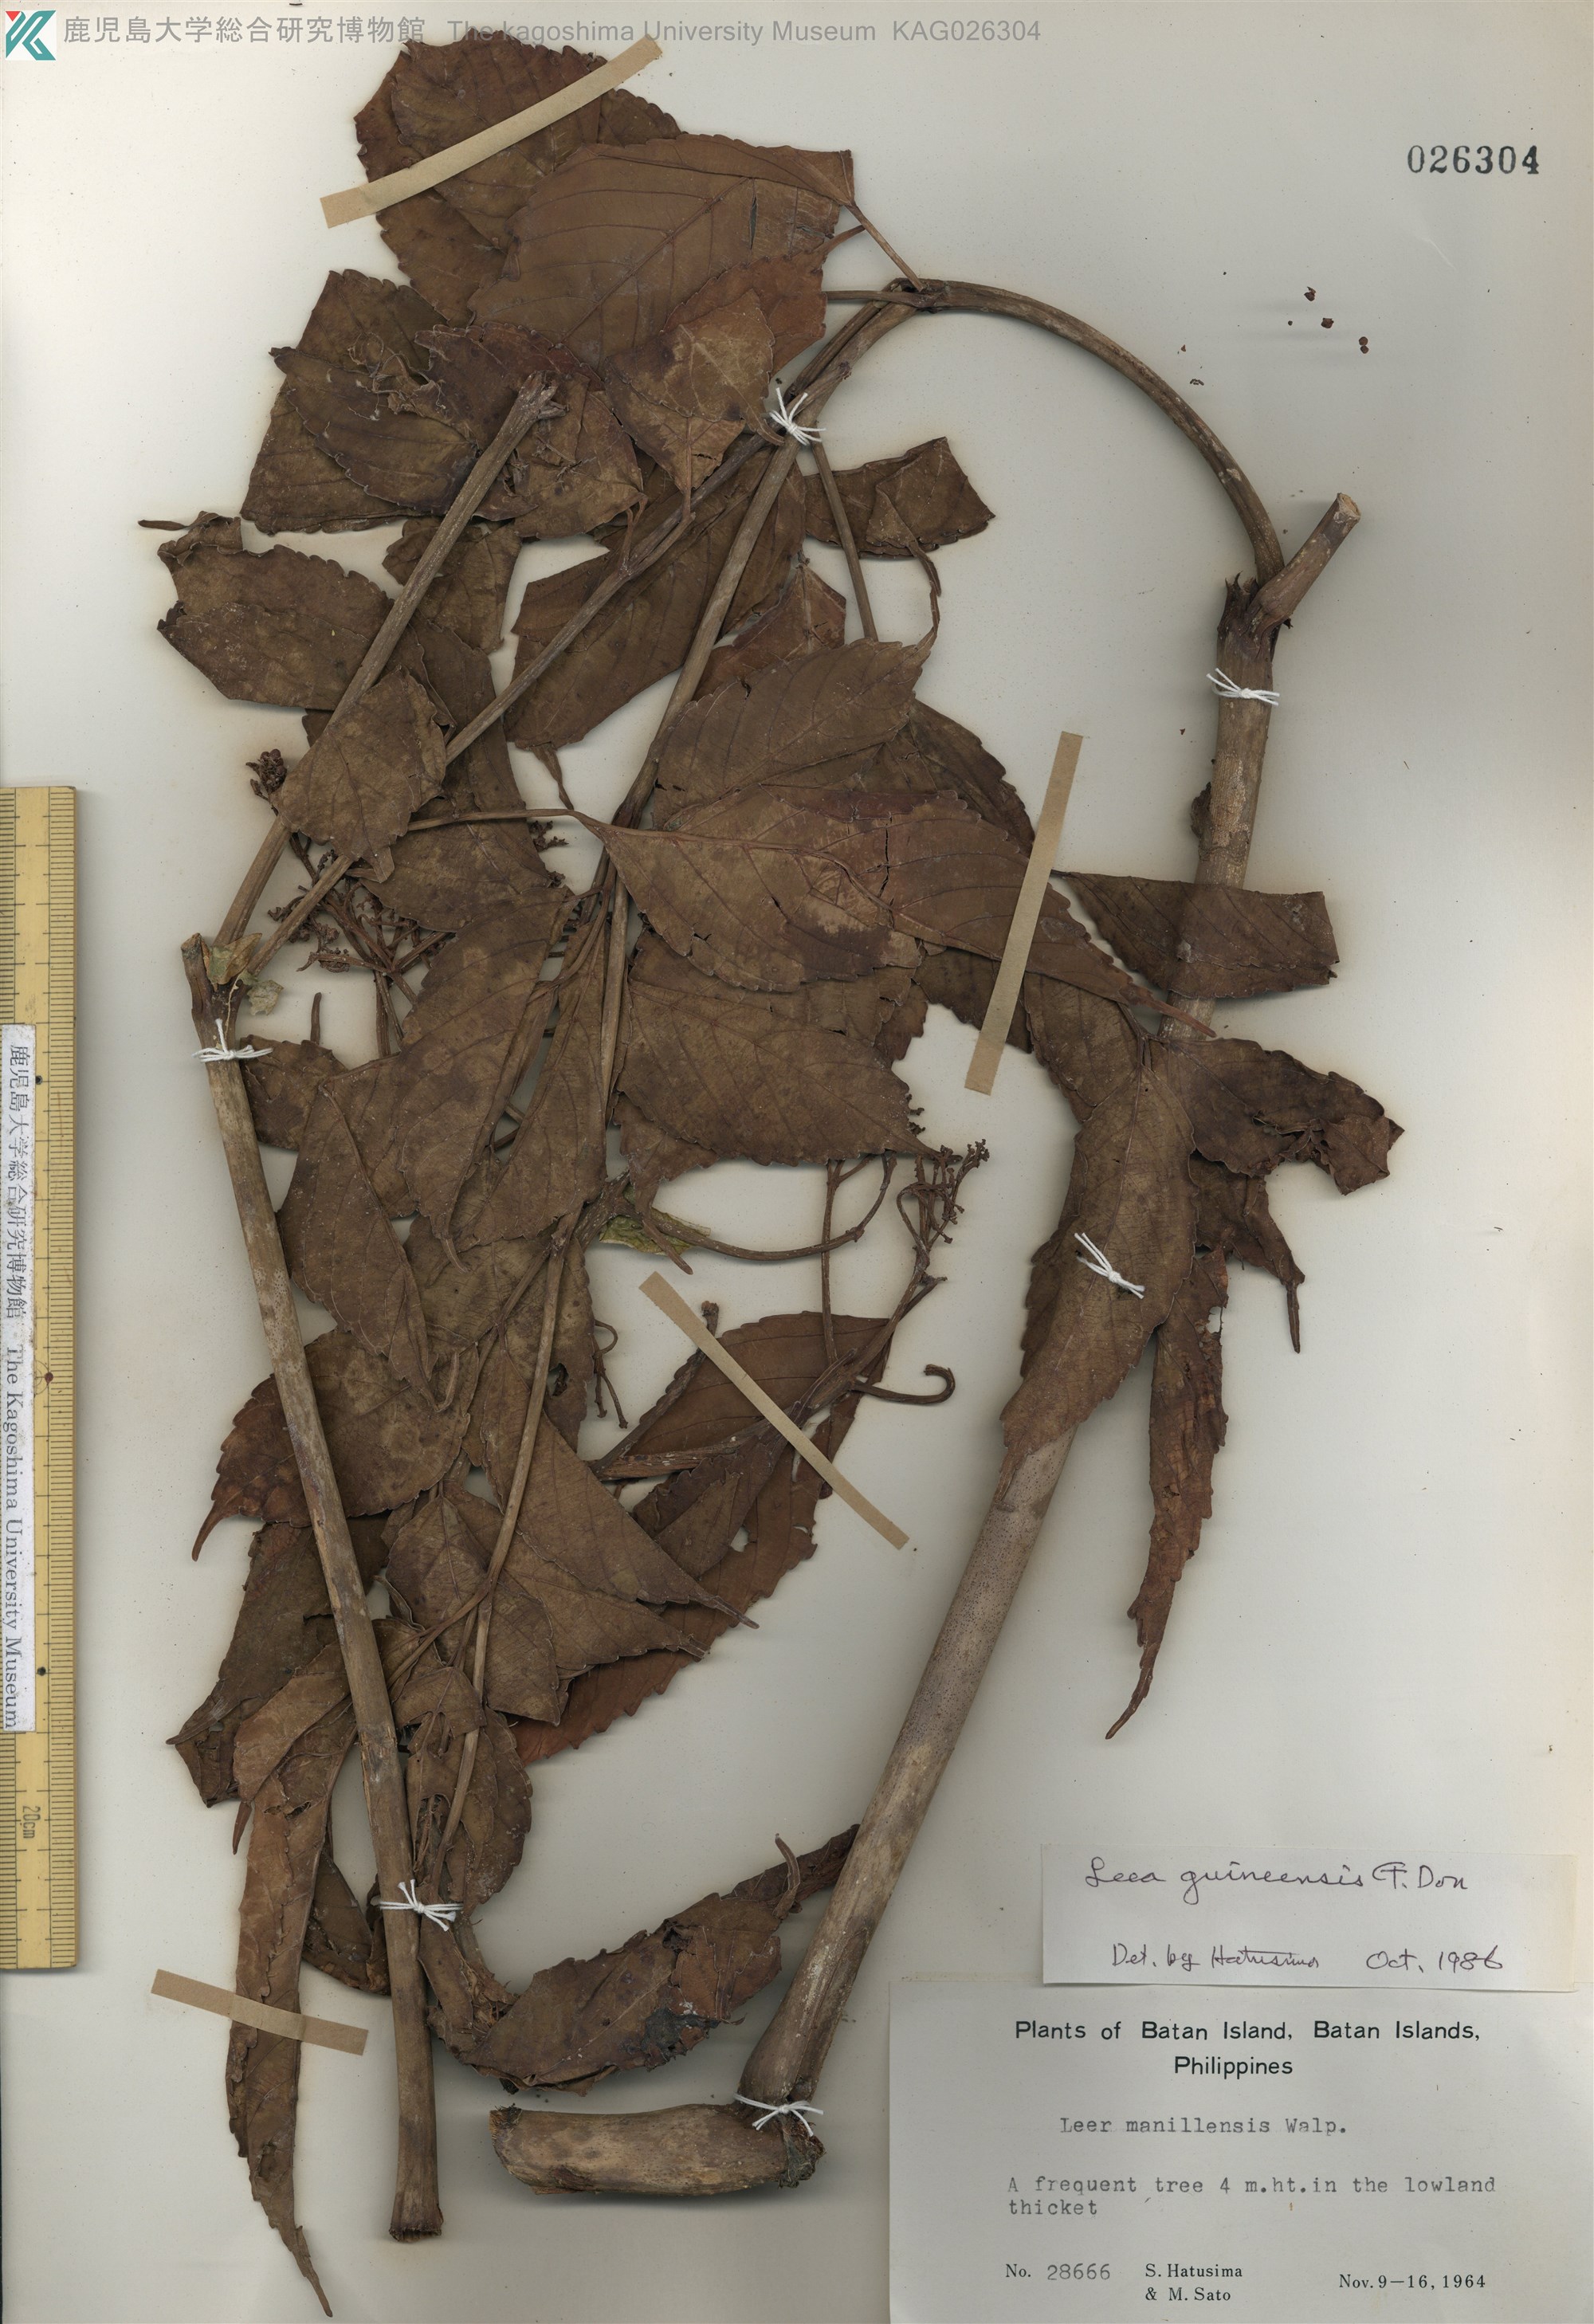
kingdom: Plantae
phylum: Tracheophyta
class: Magnoliopsida
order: Vitales
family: Vitaceae
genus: Leea
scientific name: Leea guineensis
